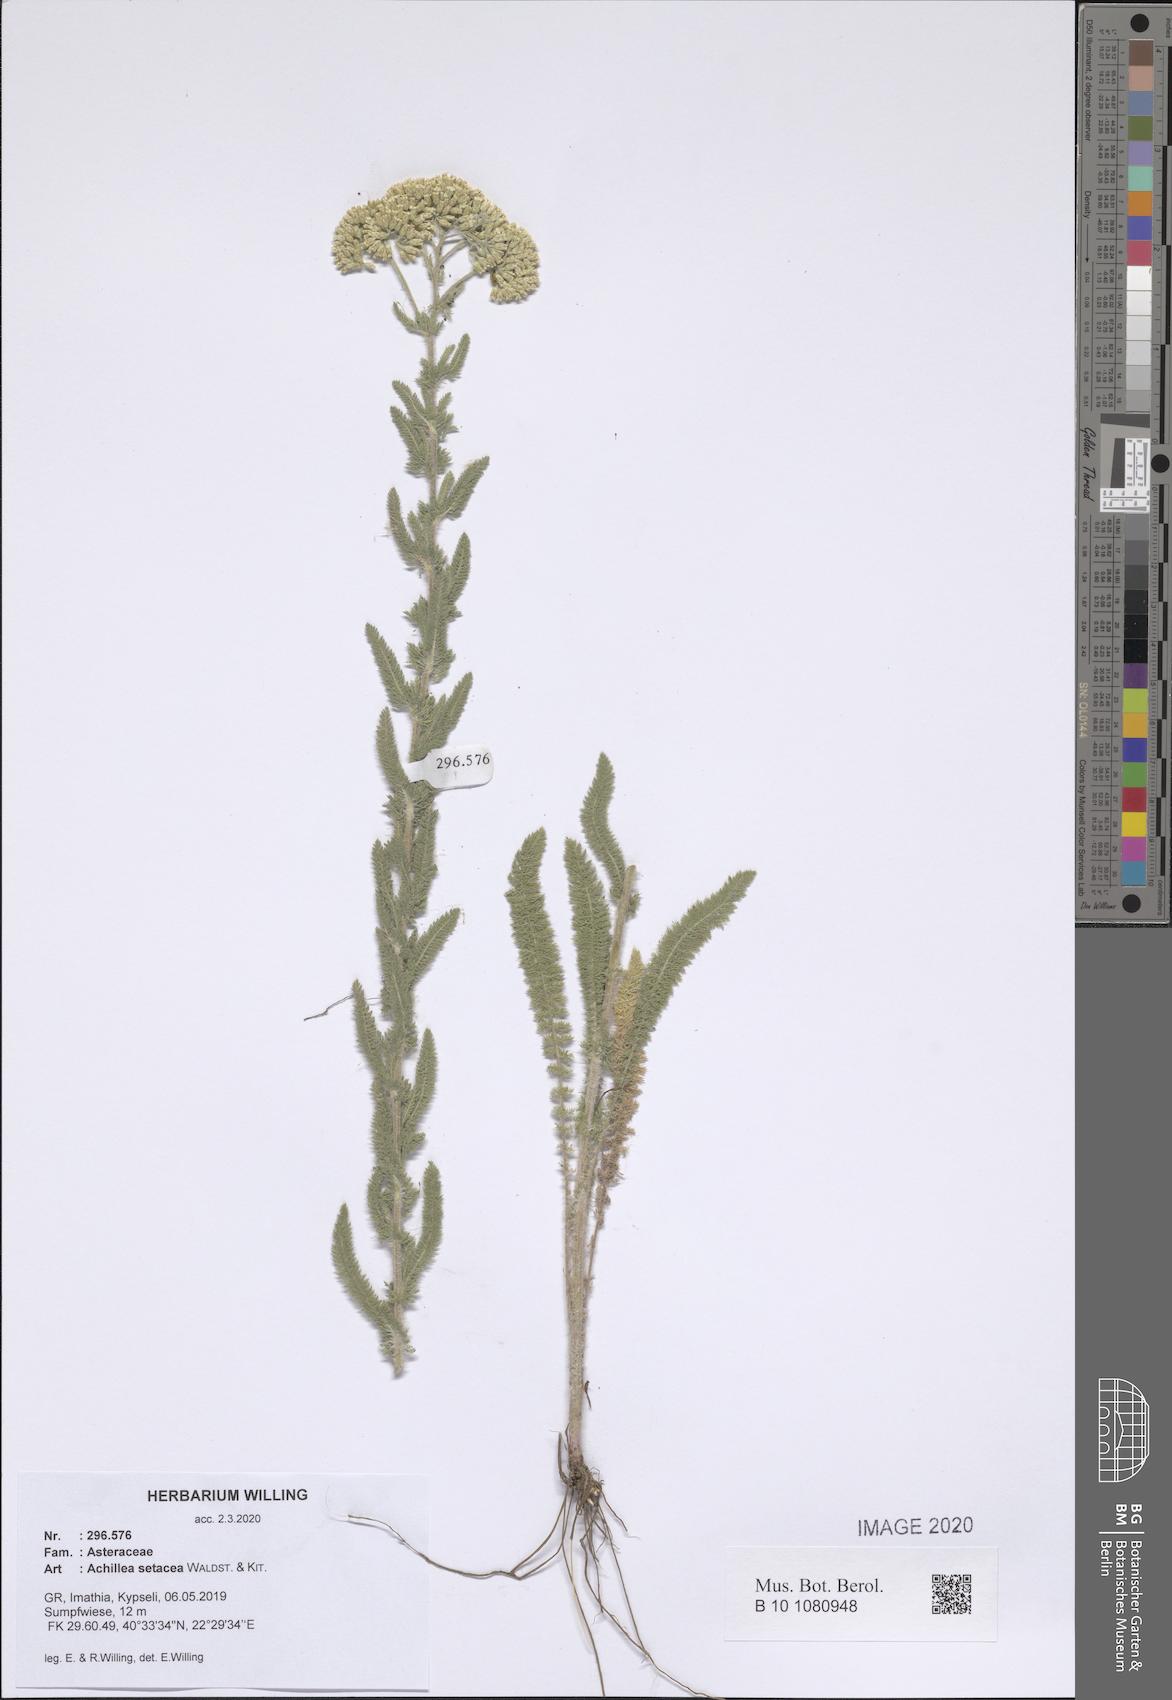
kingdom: Plantae
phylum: Tracheophyta
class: Magnoliopsida
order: Asterales
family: Asteraceae
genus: Achillea
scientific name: Achillea setacea
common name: Bristly yarrow
